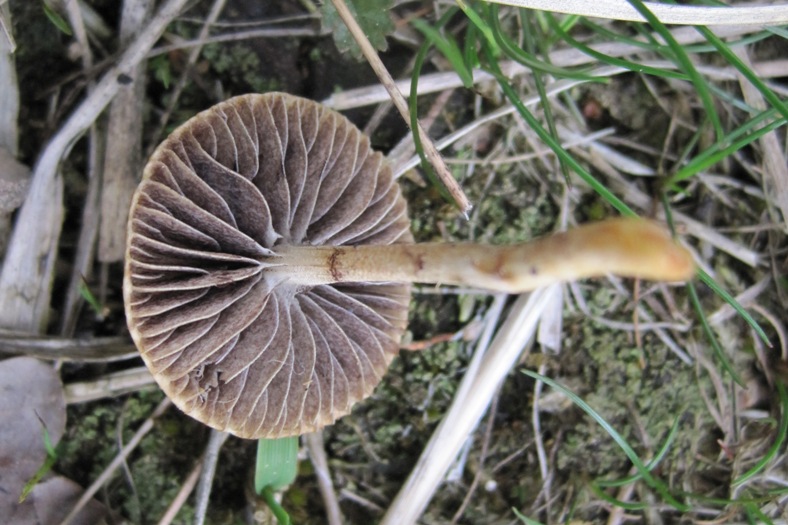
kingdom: Fungi
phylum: Basidiomycota
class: Agaricomycetes
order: Agaricales
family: Strophariaceae
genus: Protostropharia
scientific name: Protostropharia semiglobata
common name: halvkugleformet bredblad
